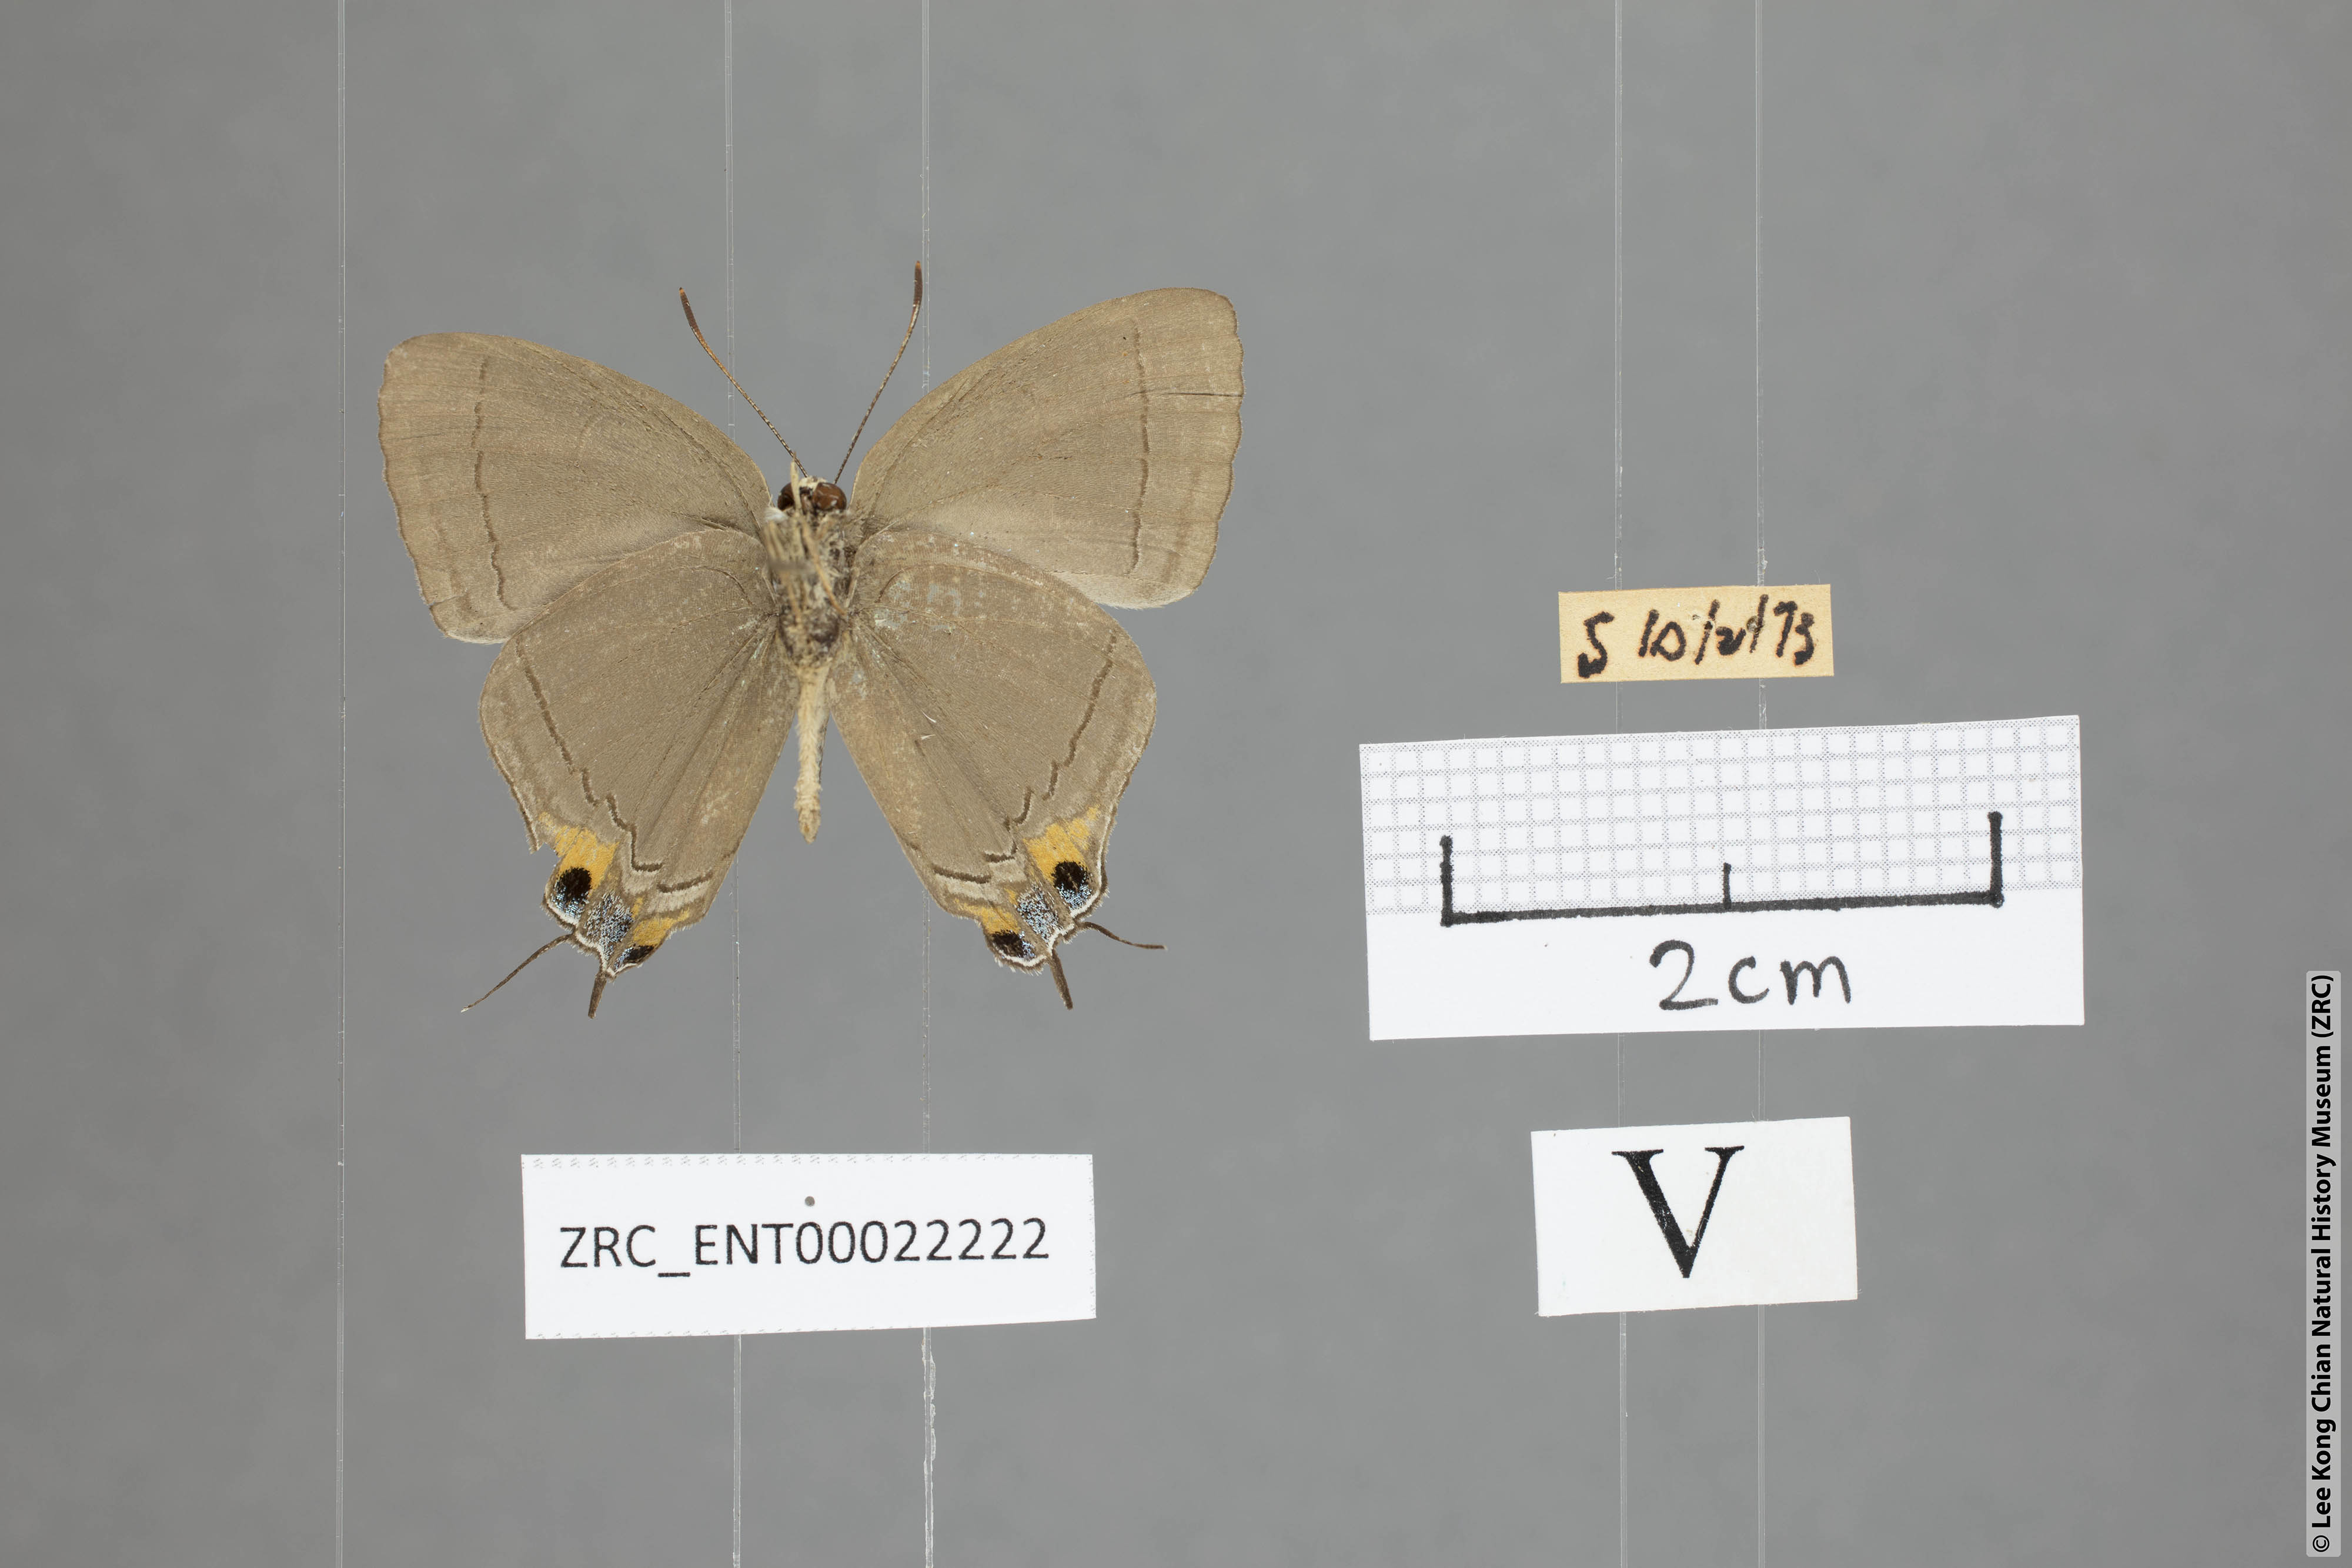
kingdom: Animalia
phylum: Arthropoda
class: Insecta
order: Lepidoptera
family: Lycaenidae
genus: Tajuria
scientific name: Tajuria mantra
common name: Felder's royal
